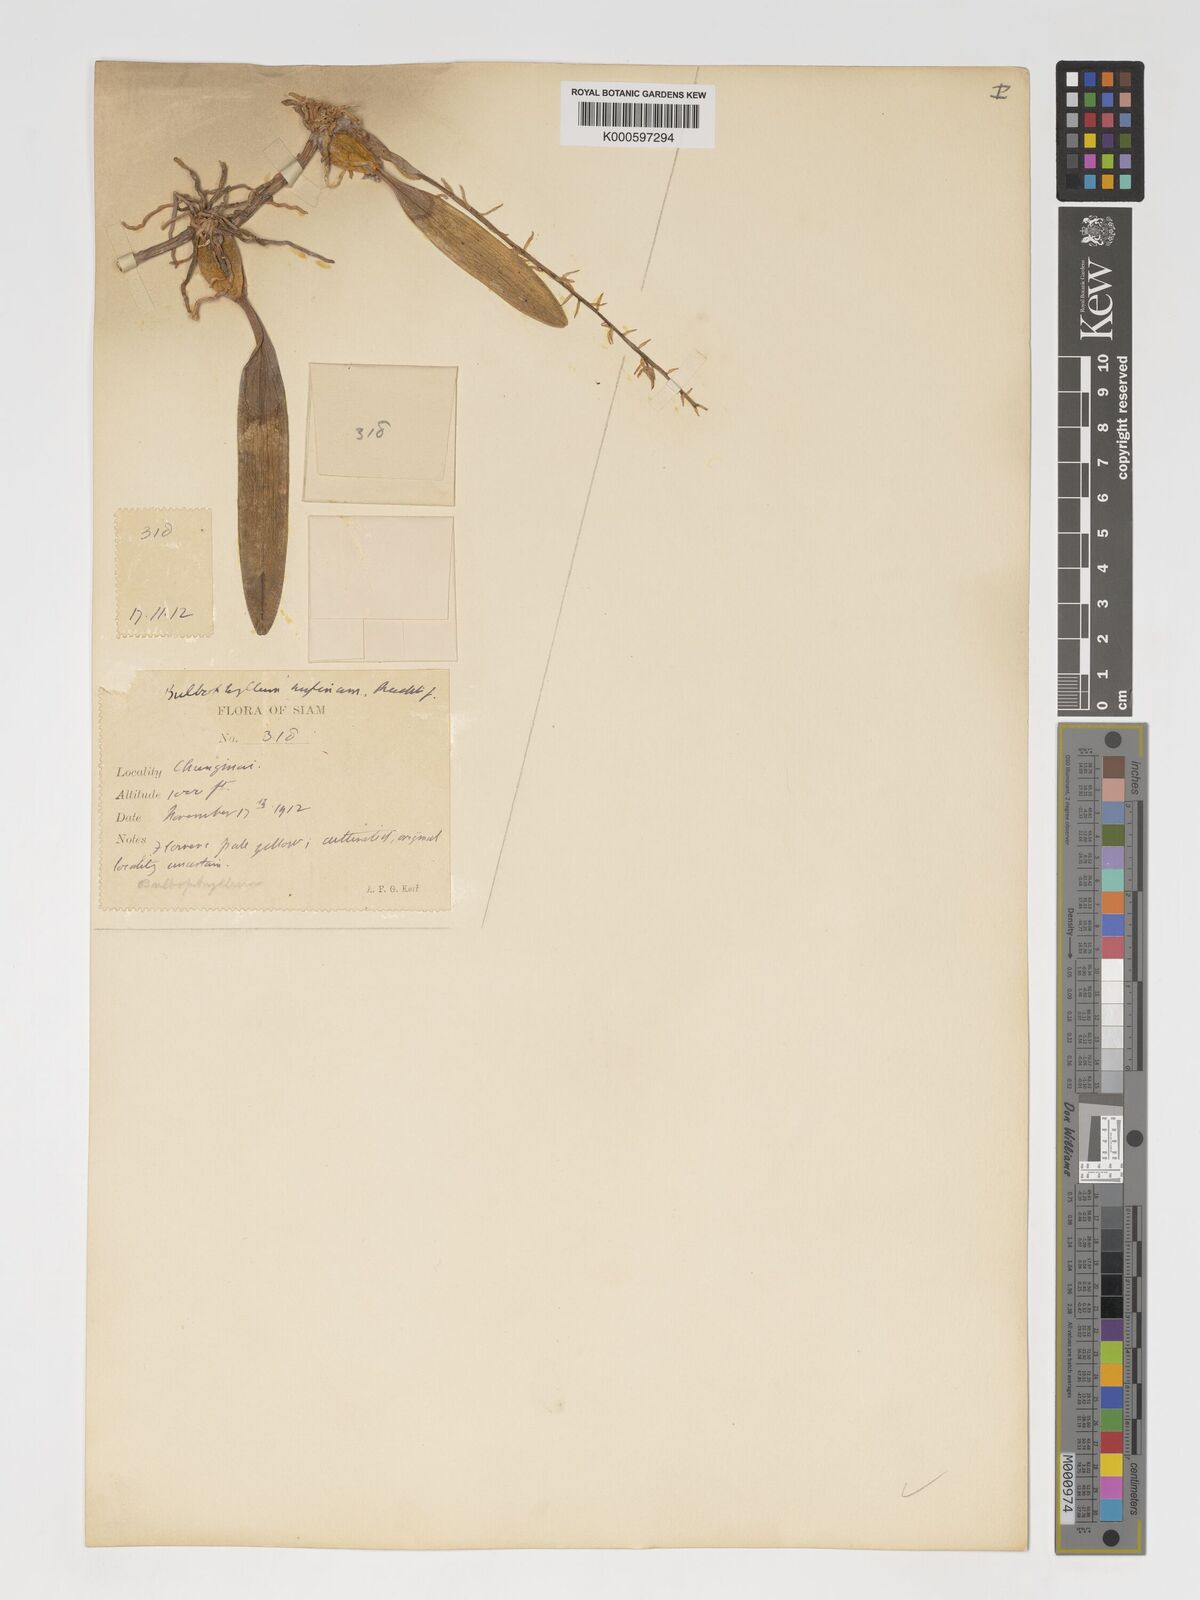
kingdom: Plantae
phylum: Tracheophyta
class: Liliopsida
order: Asparagales
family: Orchidaceae
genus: Bulbophyllum
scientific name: Bulbophyllum rufinum
